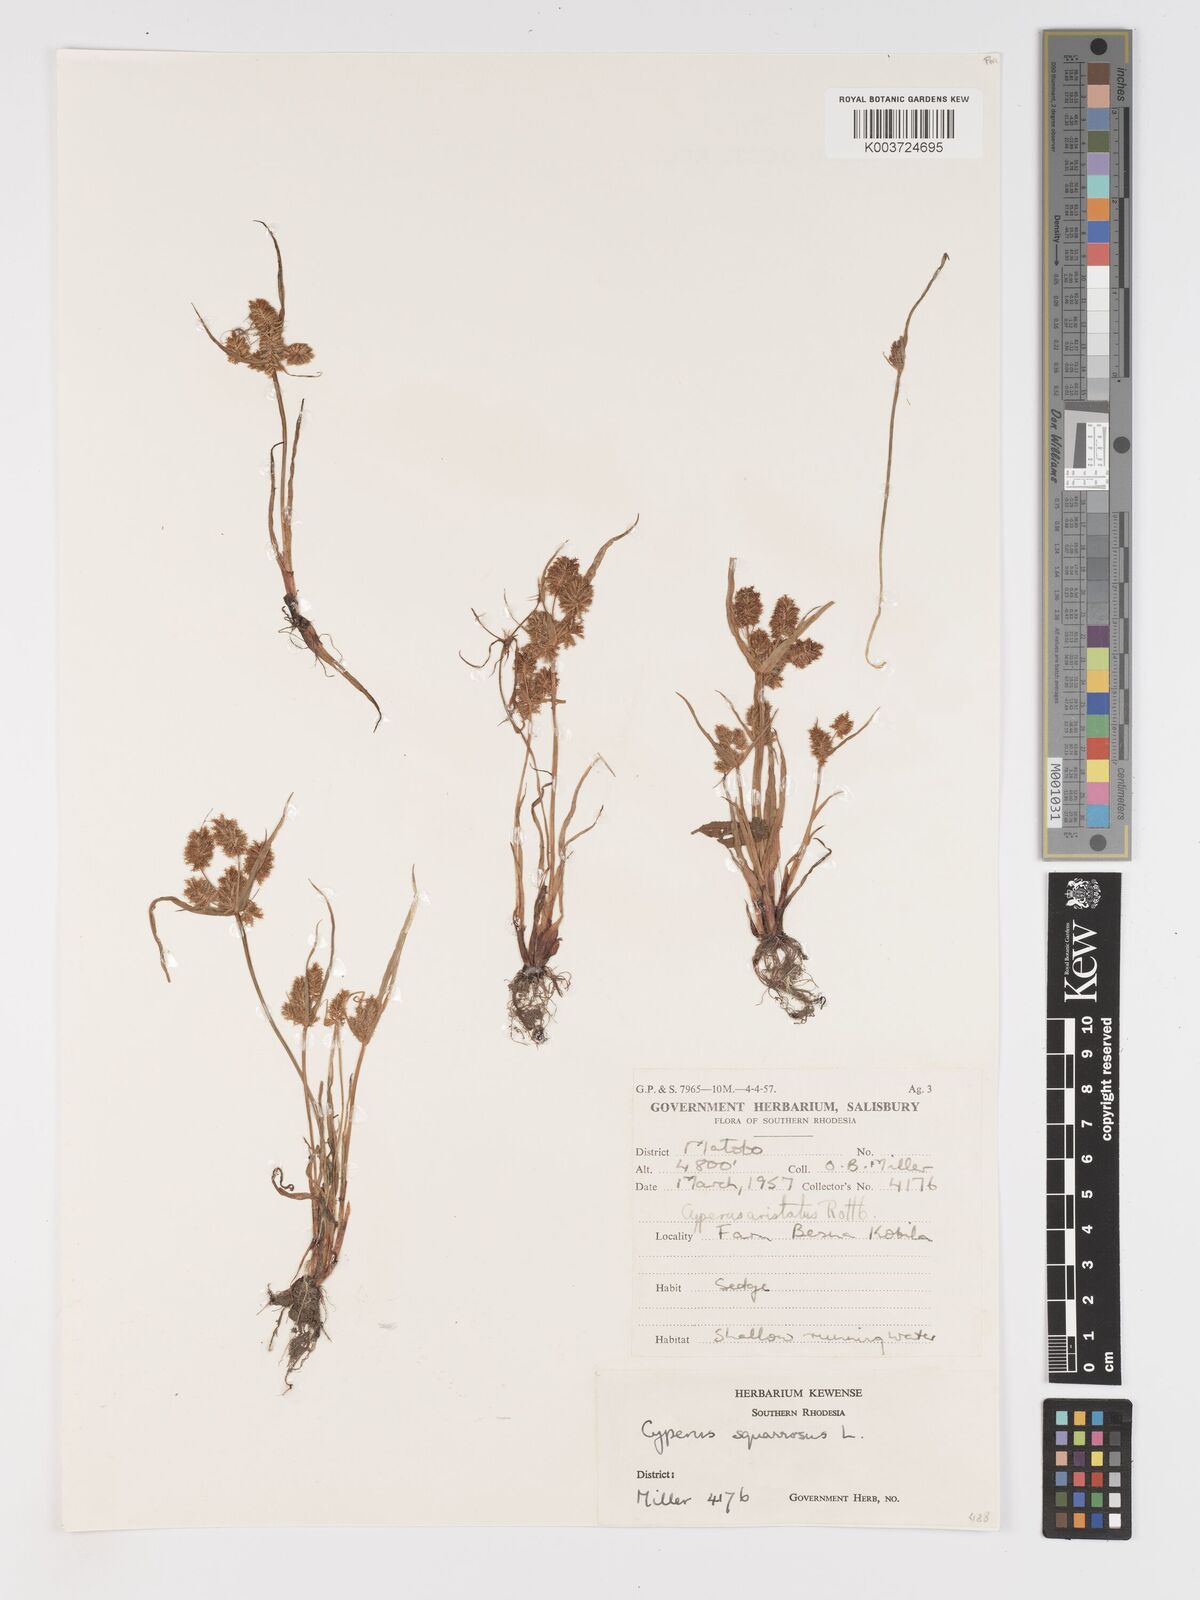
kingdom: Plantae
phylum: Tracheophyta
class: Liliopsida
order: Poales
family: Cyperaceae
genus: Cyperus
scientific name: Cyperus squarrosus
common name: Awned cyperus
